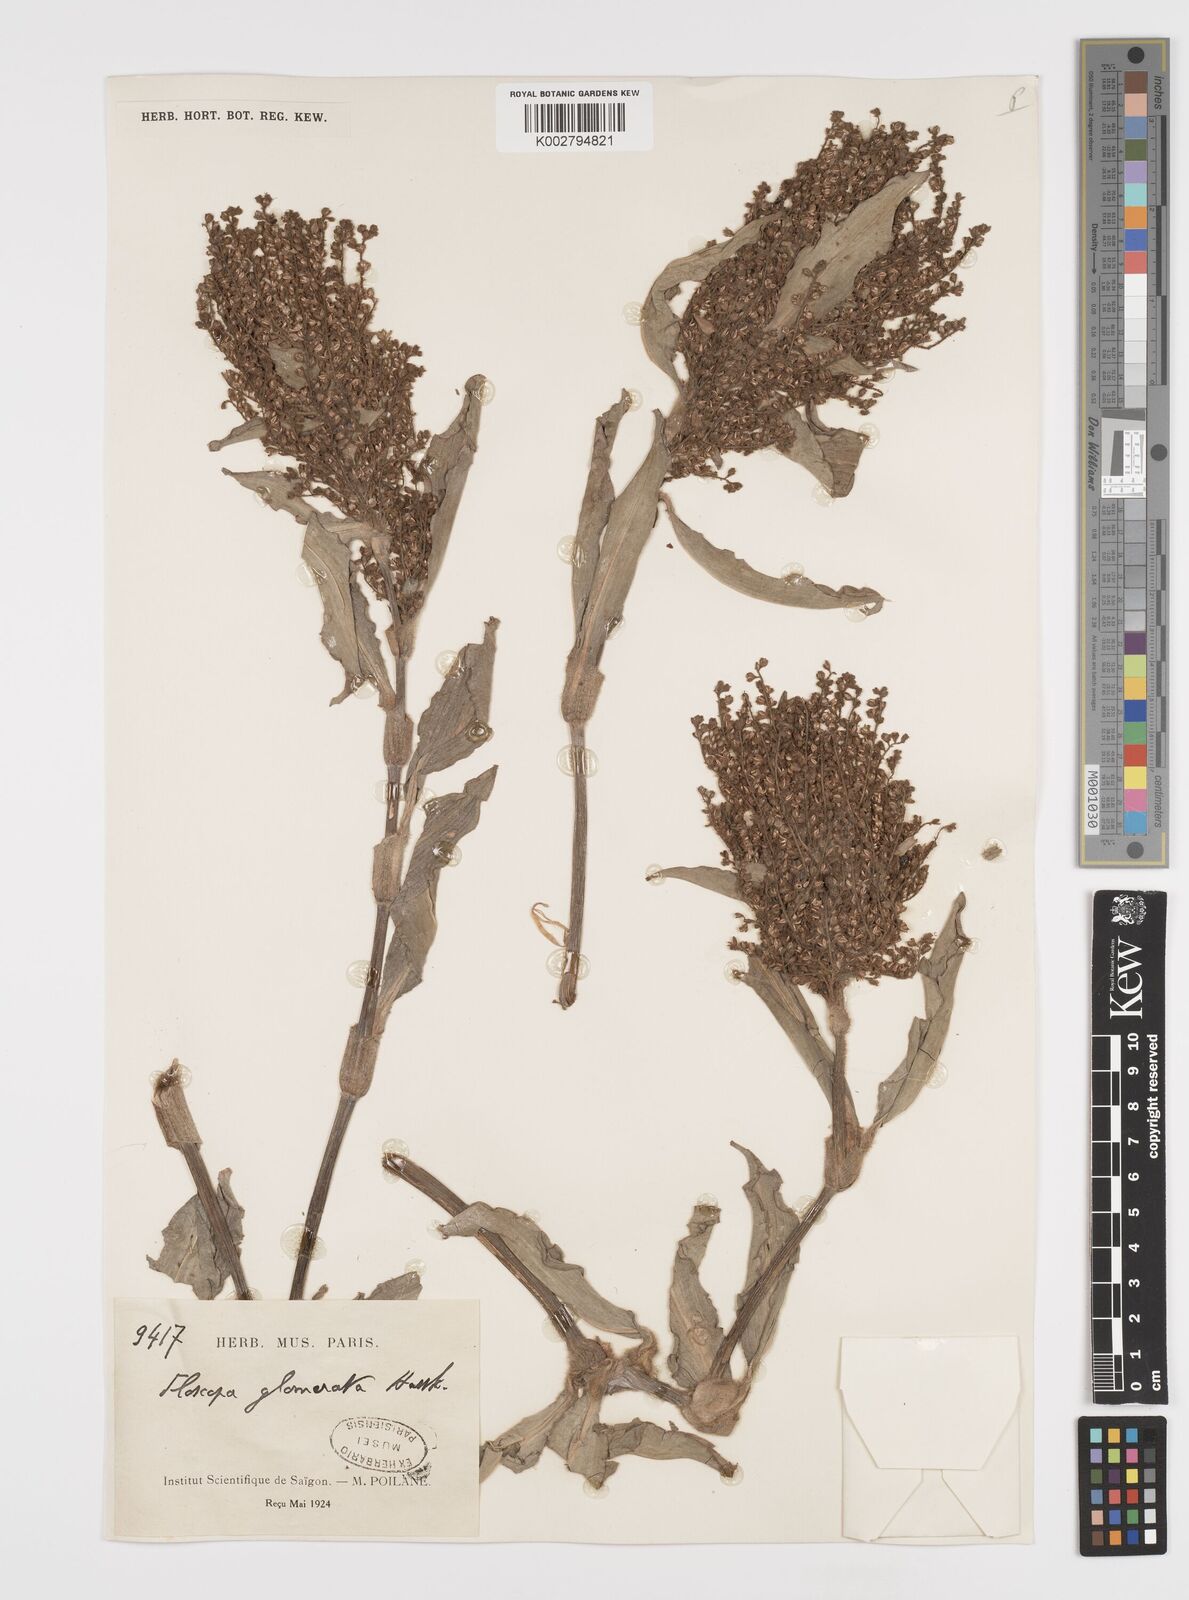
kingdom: Plantae
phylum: Tracheophyta
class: Liliopsida
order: Commelinales
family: Commelinaceae
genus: Floscopa
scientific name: Floscopa glomerata
